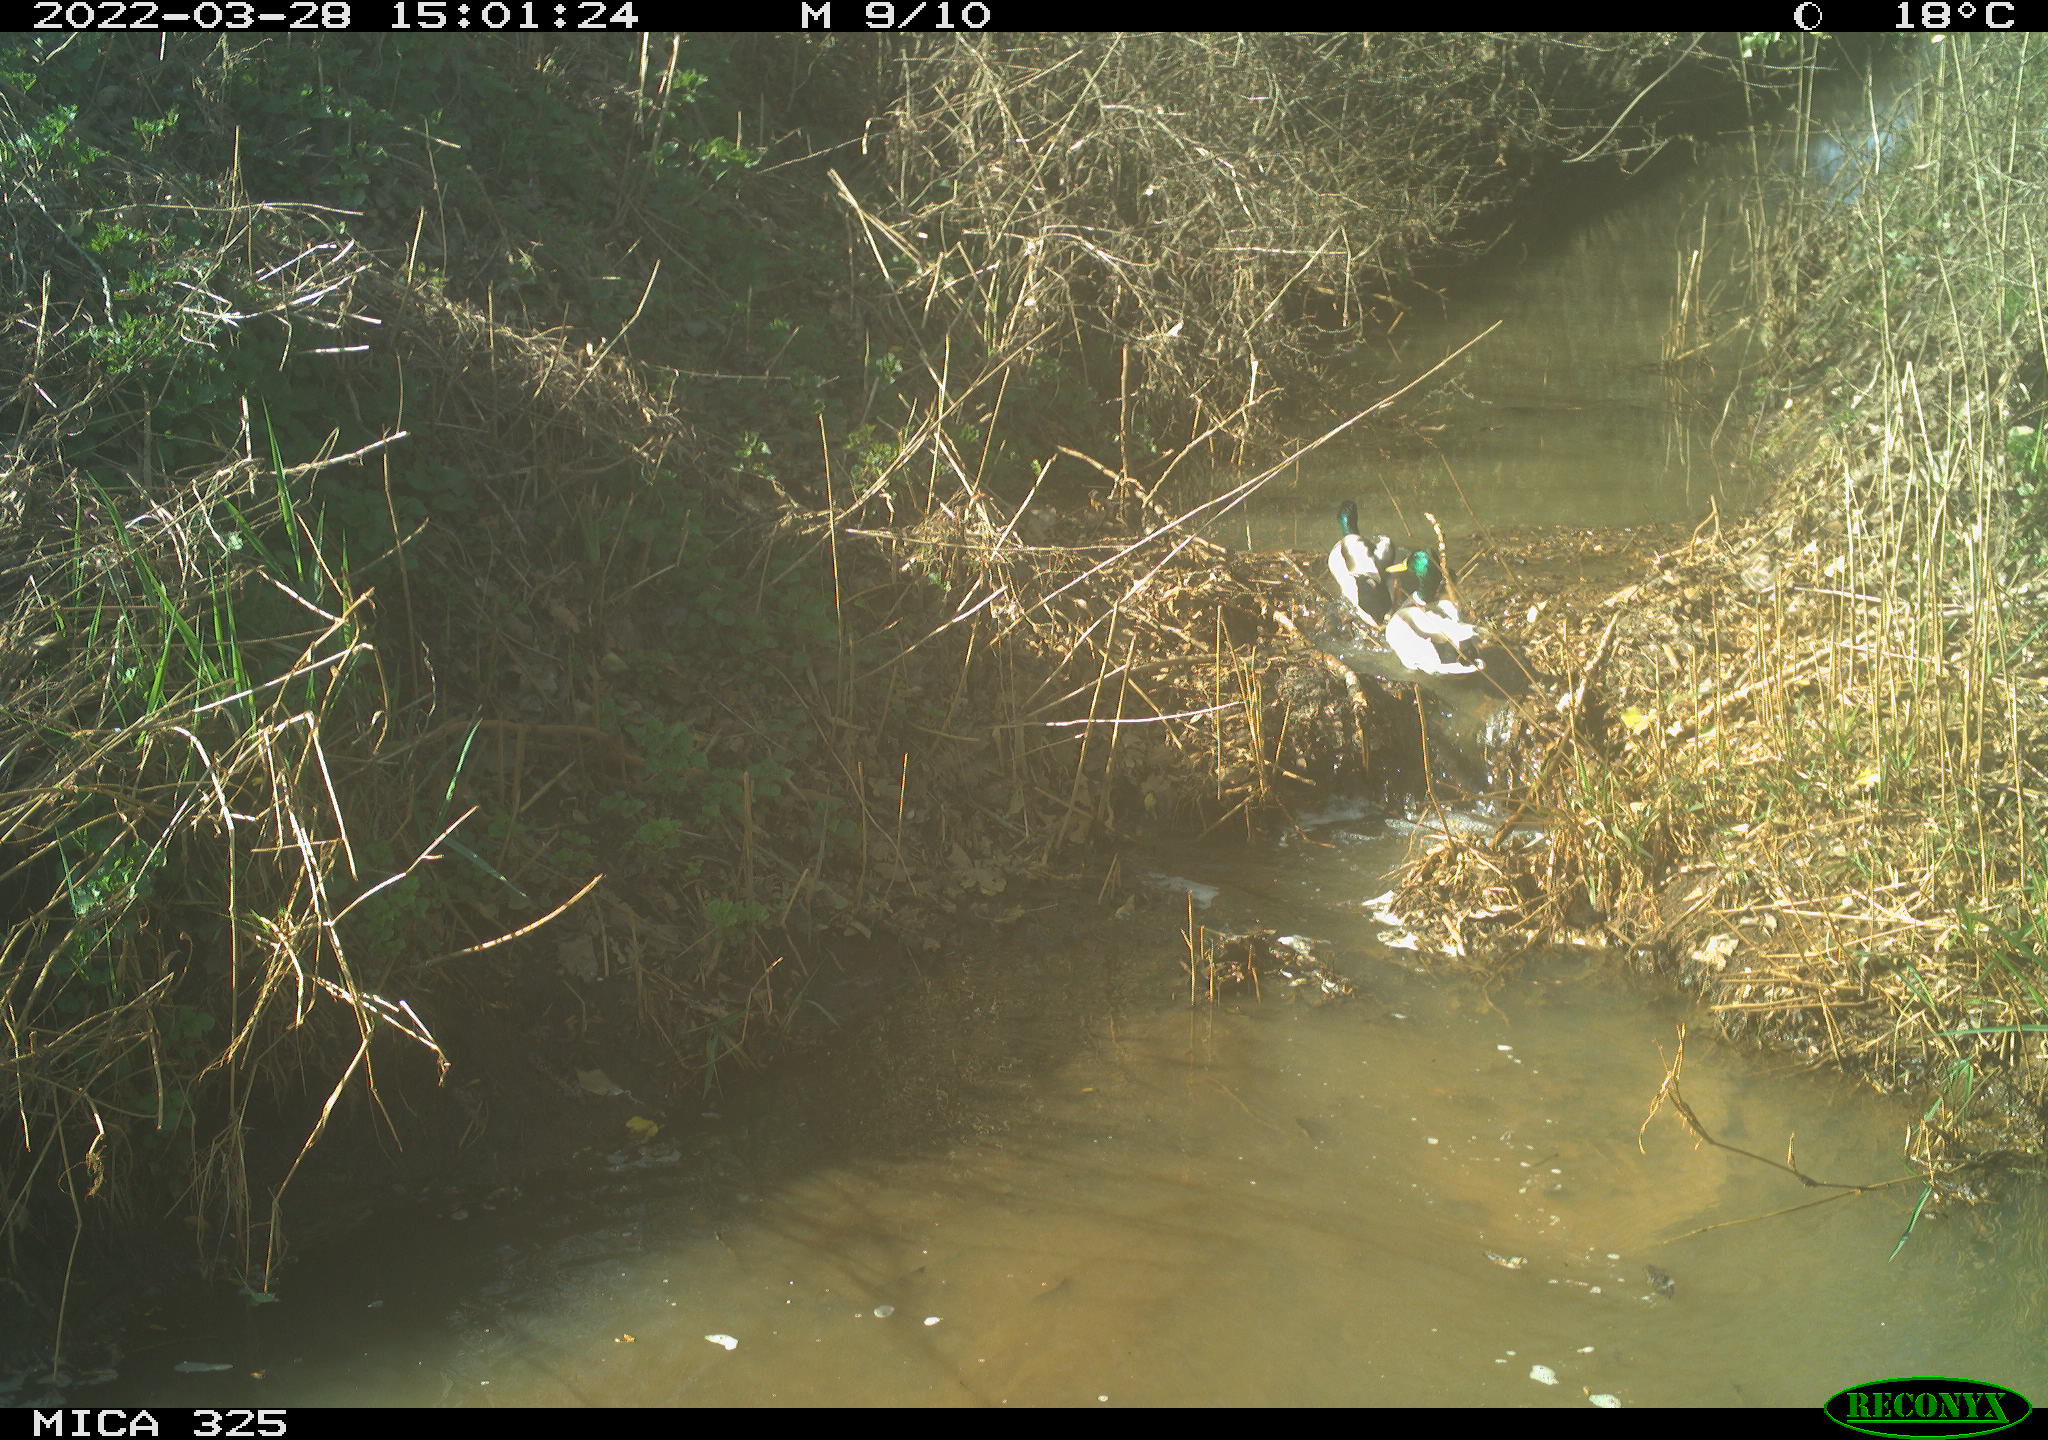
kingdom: Animalia
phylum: Chordata
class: Aves
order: Anseriformes
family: Anatidae
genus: Anas
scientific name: Anas platyrhynchos
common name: Mallard
